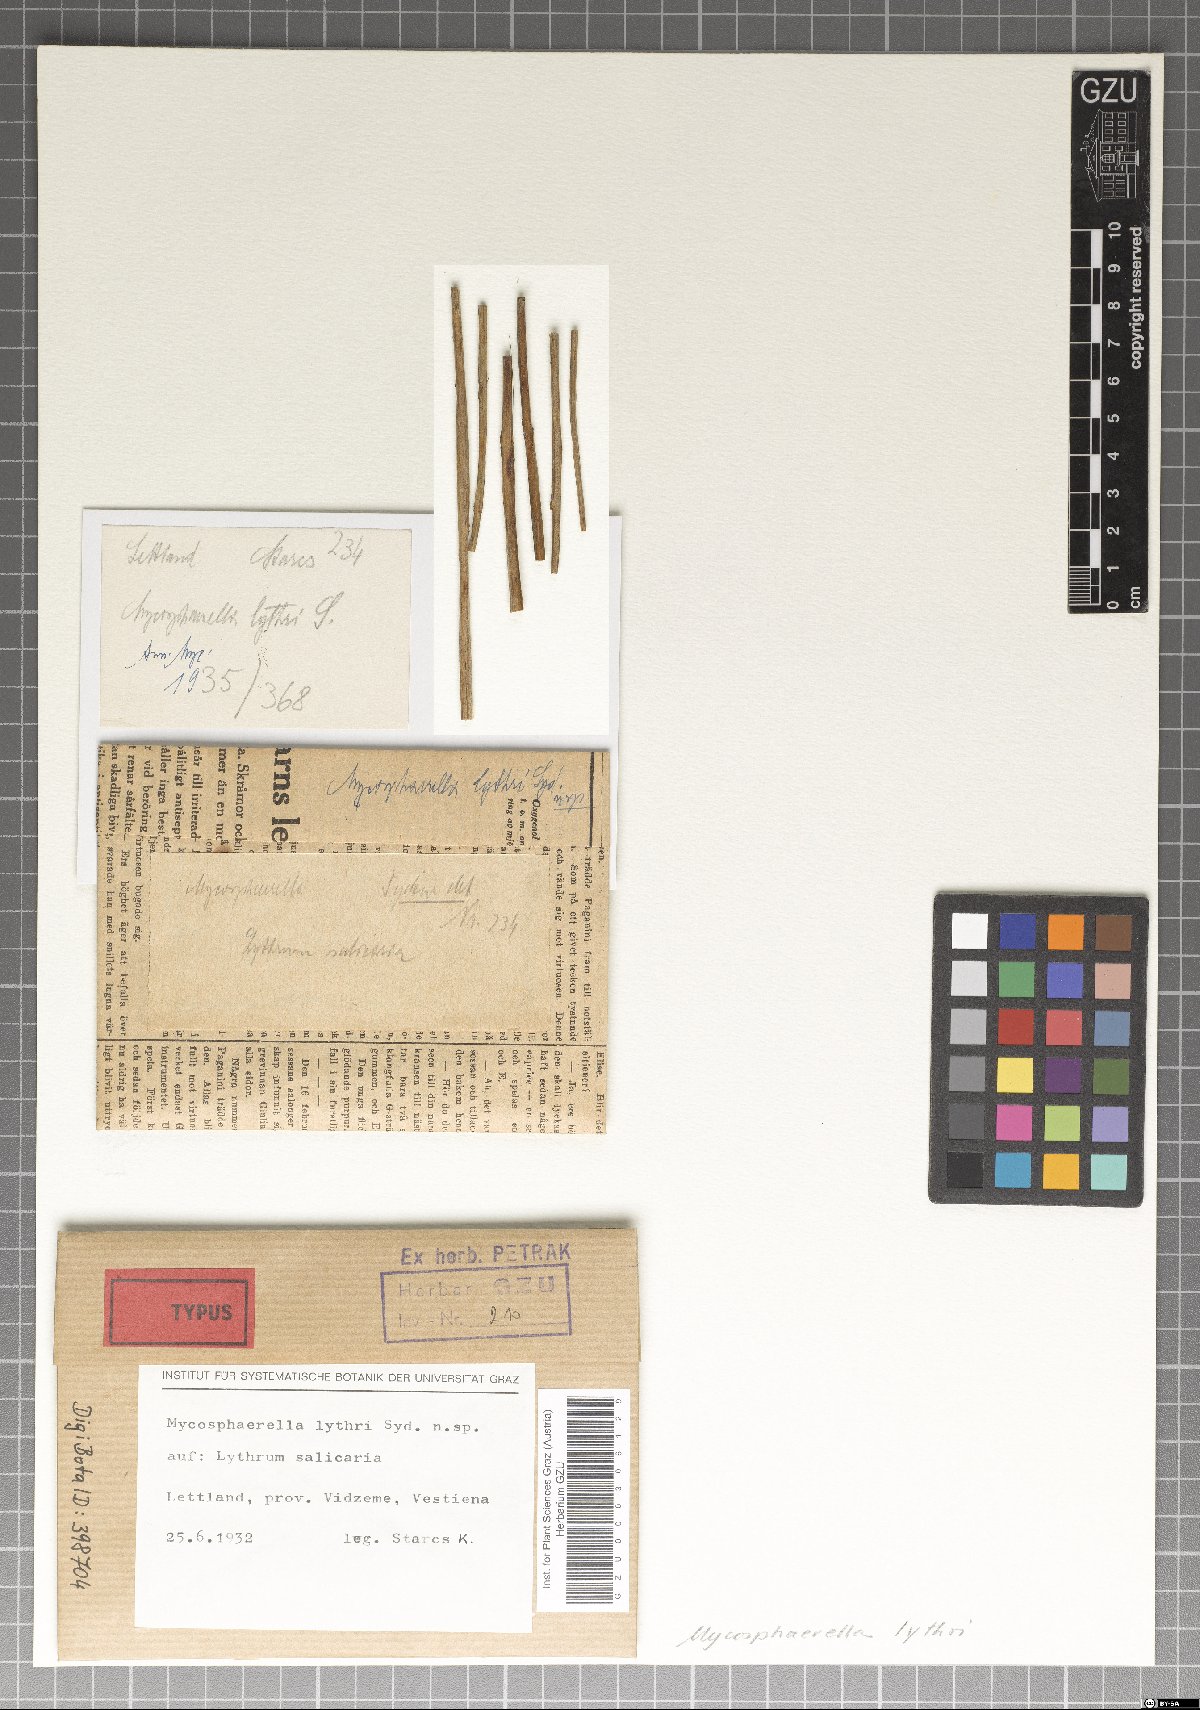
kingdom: Fungi
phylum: Ascomycota
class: Dothideomycetes
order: Mycosphaerellales
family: Mycosphaerellaceae
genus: Mycosphaerella
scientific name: Mycosphaerella lythri
